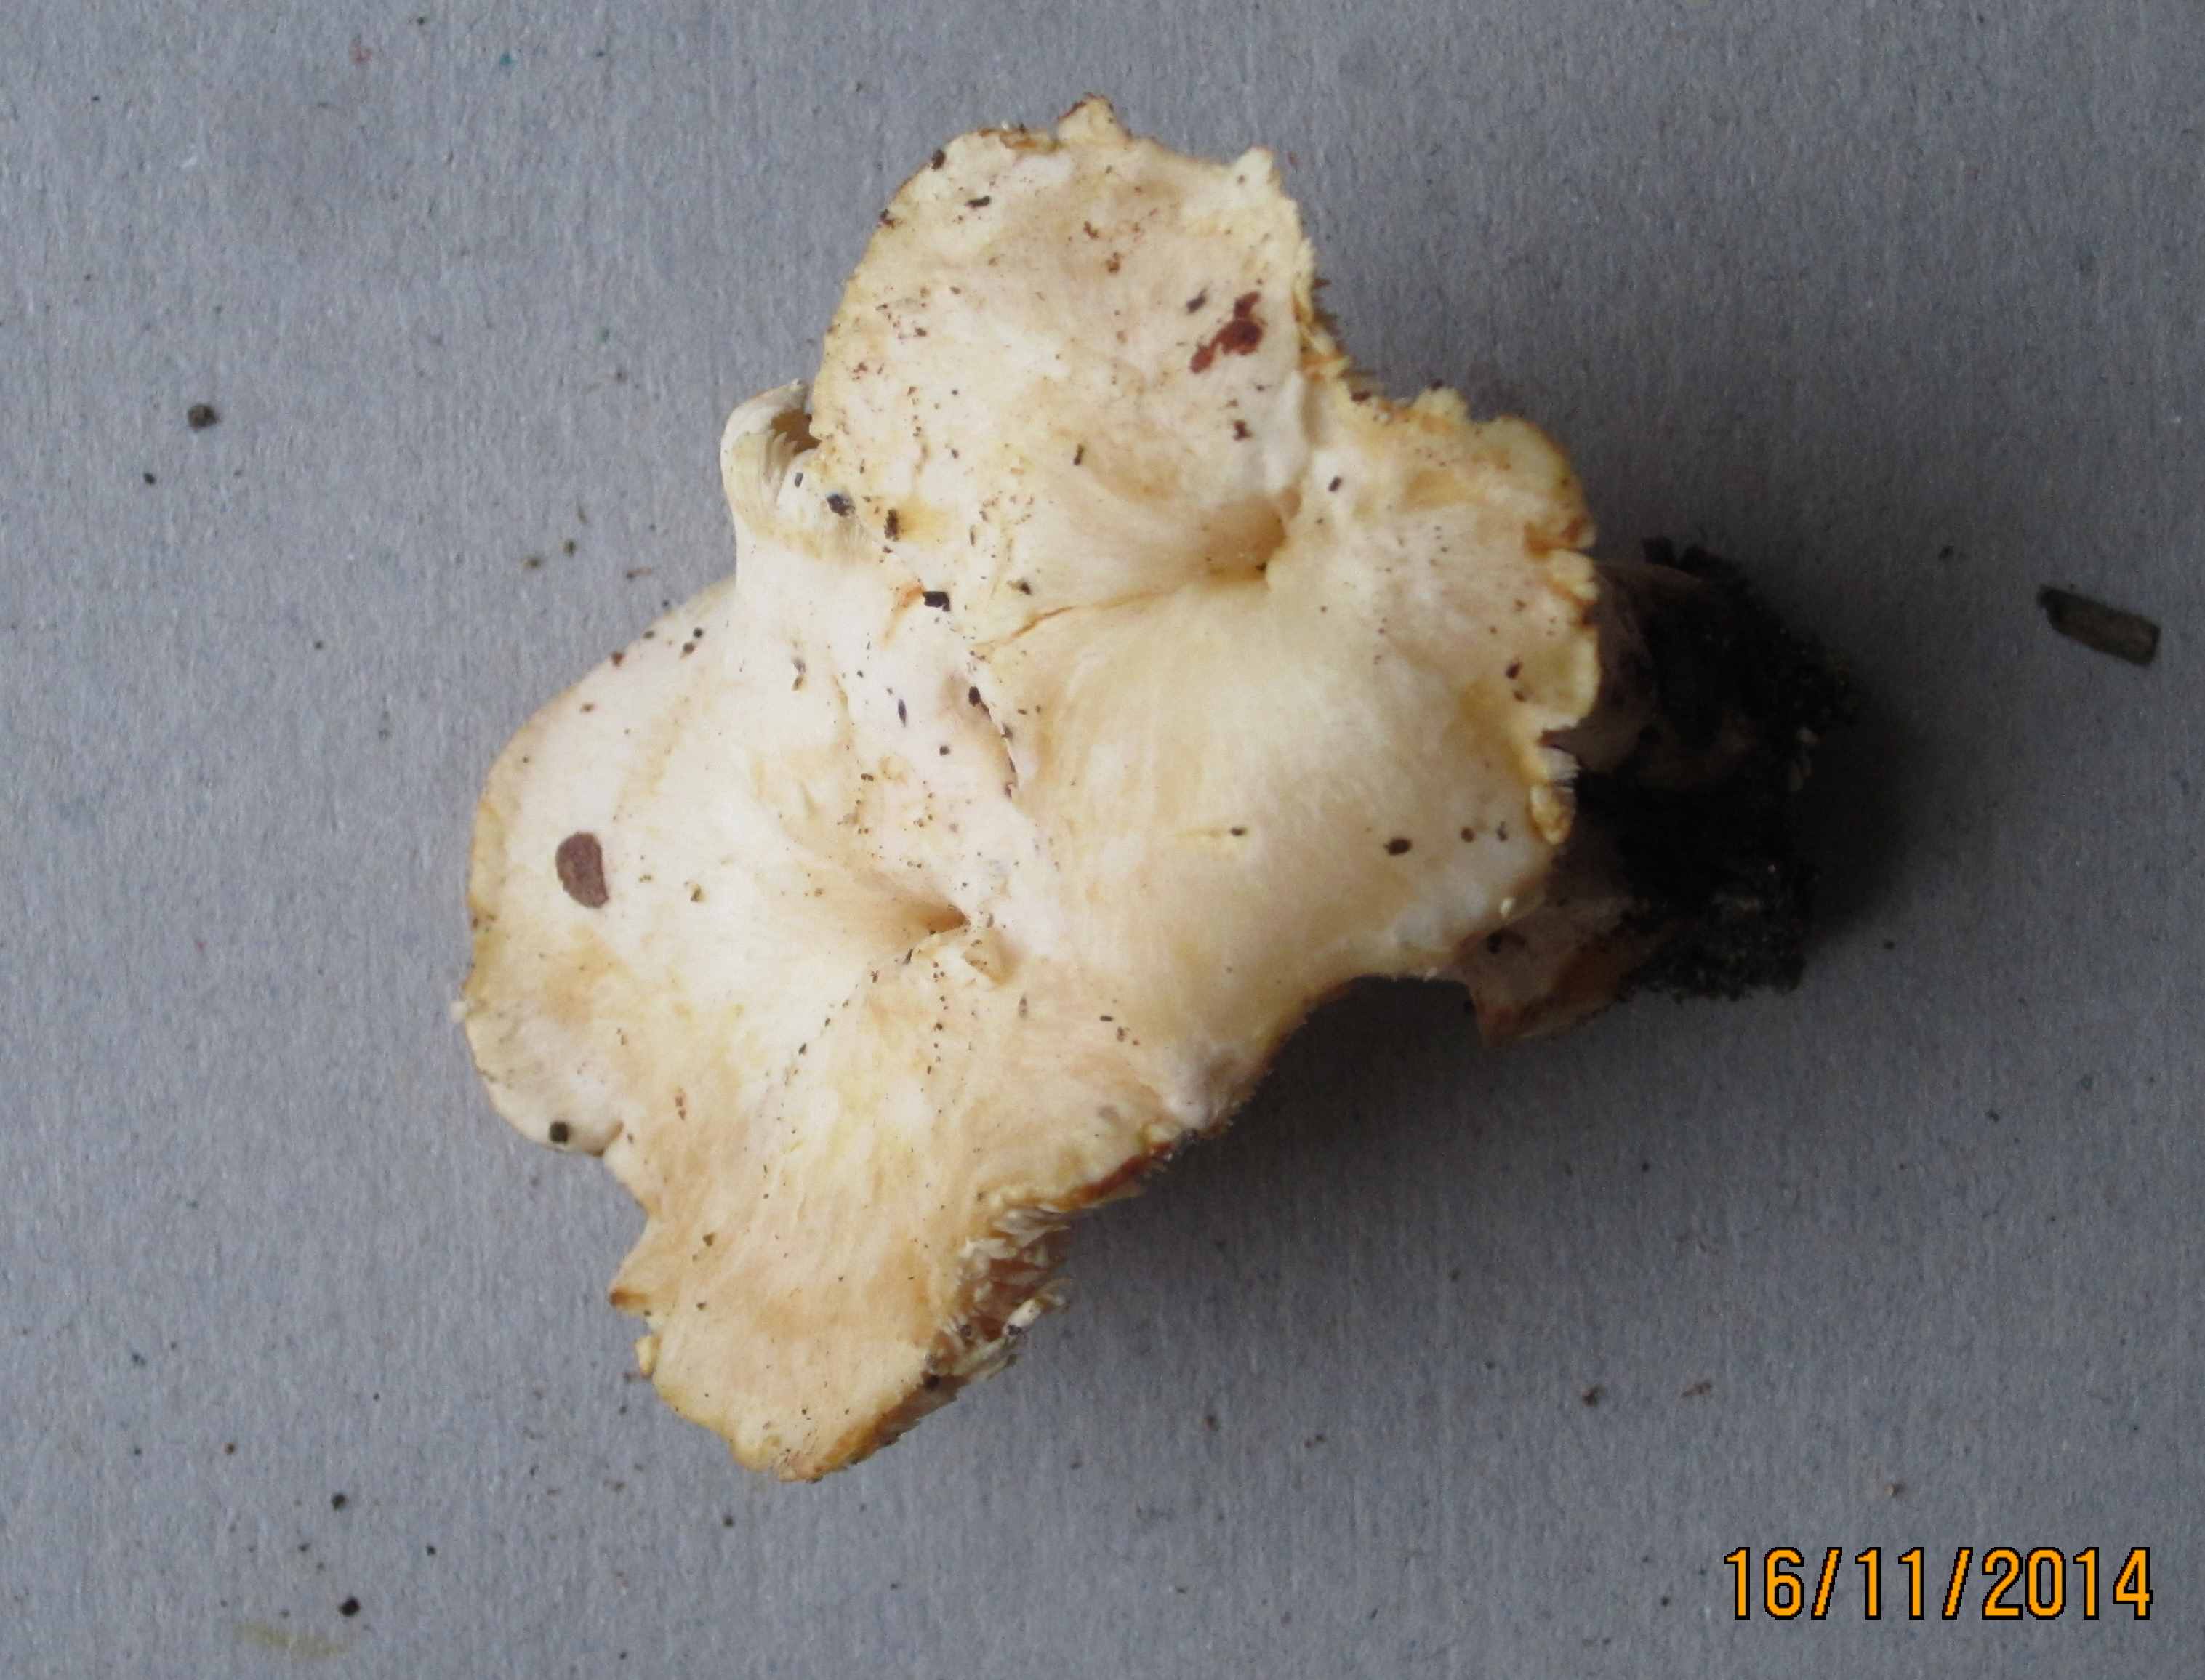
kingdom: Fungi
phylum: Basidiomycota
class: Agaricomycetes
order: Cantharellales
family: Hydnaceae
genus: Hydnum
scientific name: Hydnum ibericum
